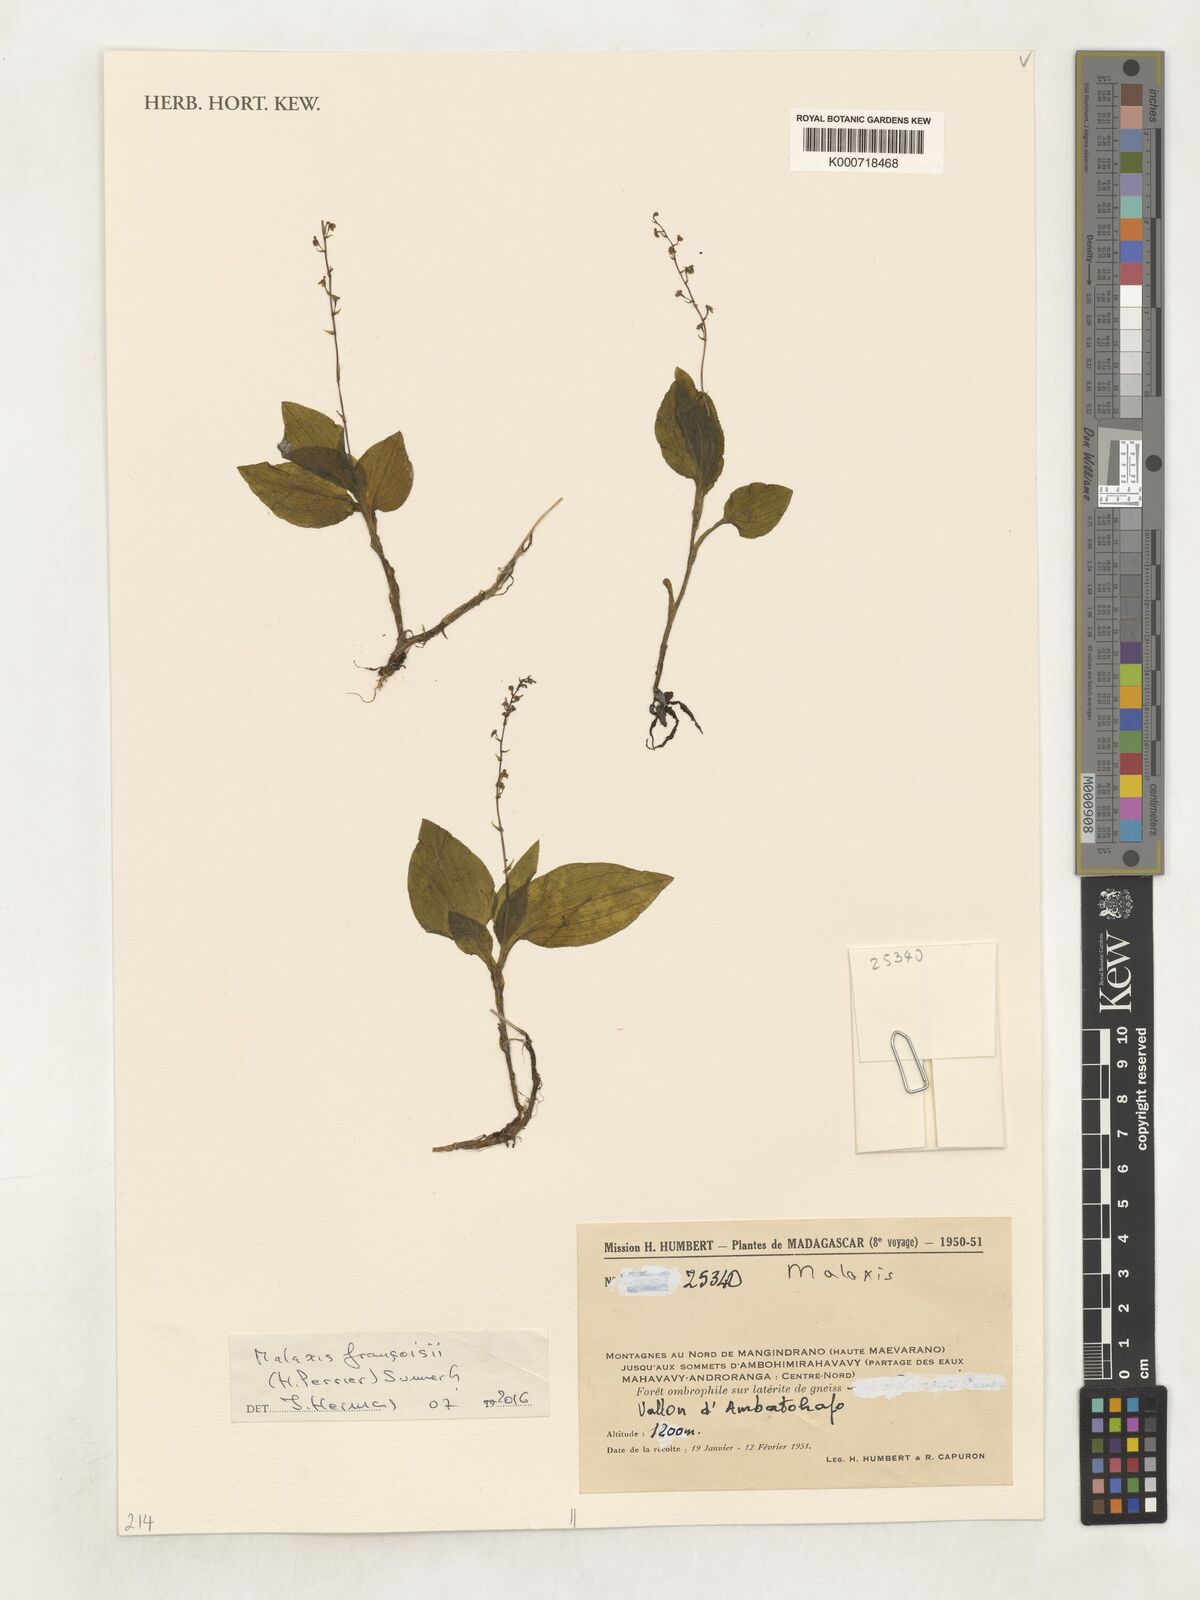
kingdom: Plantae
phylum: Tracheophyta
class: Liliopsida
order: Asparagales
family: Orchidaceae
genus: Malaxis
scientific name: Malaxis
